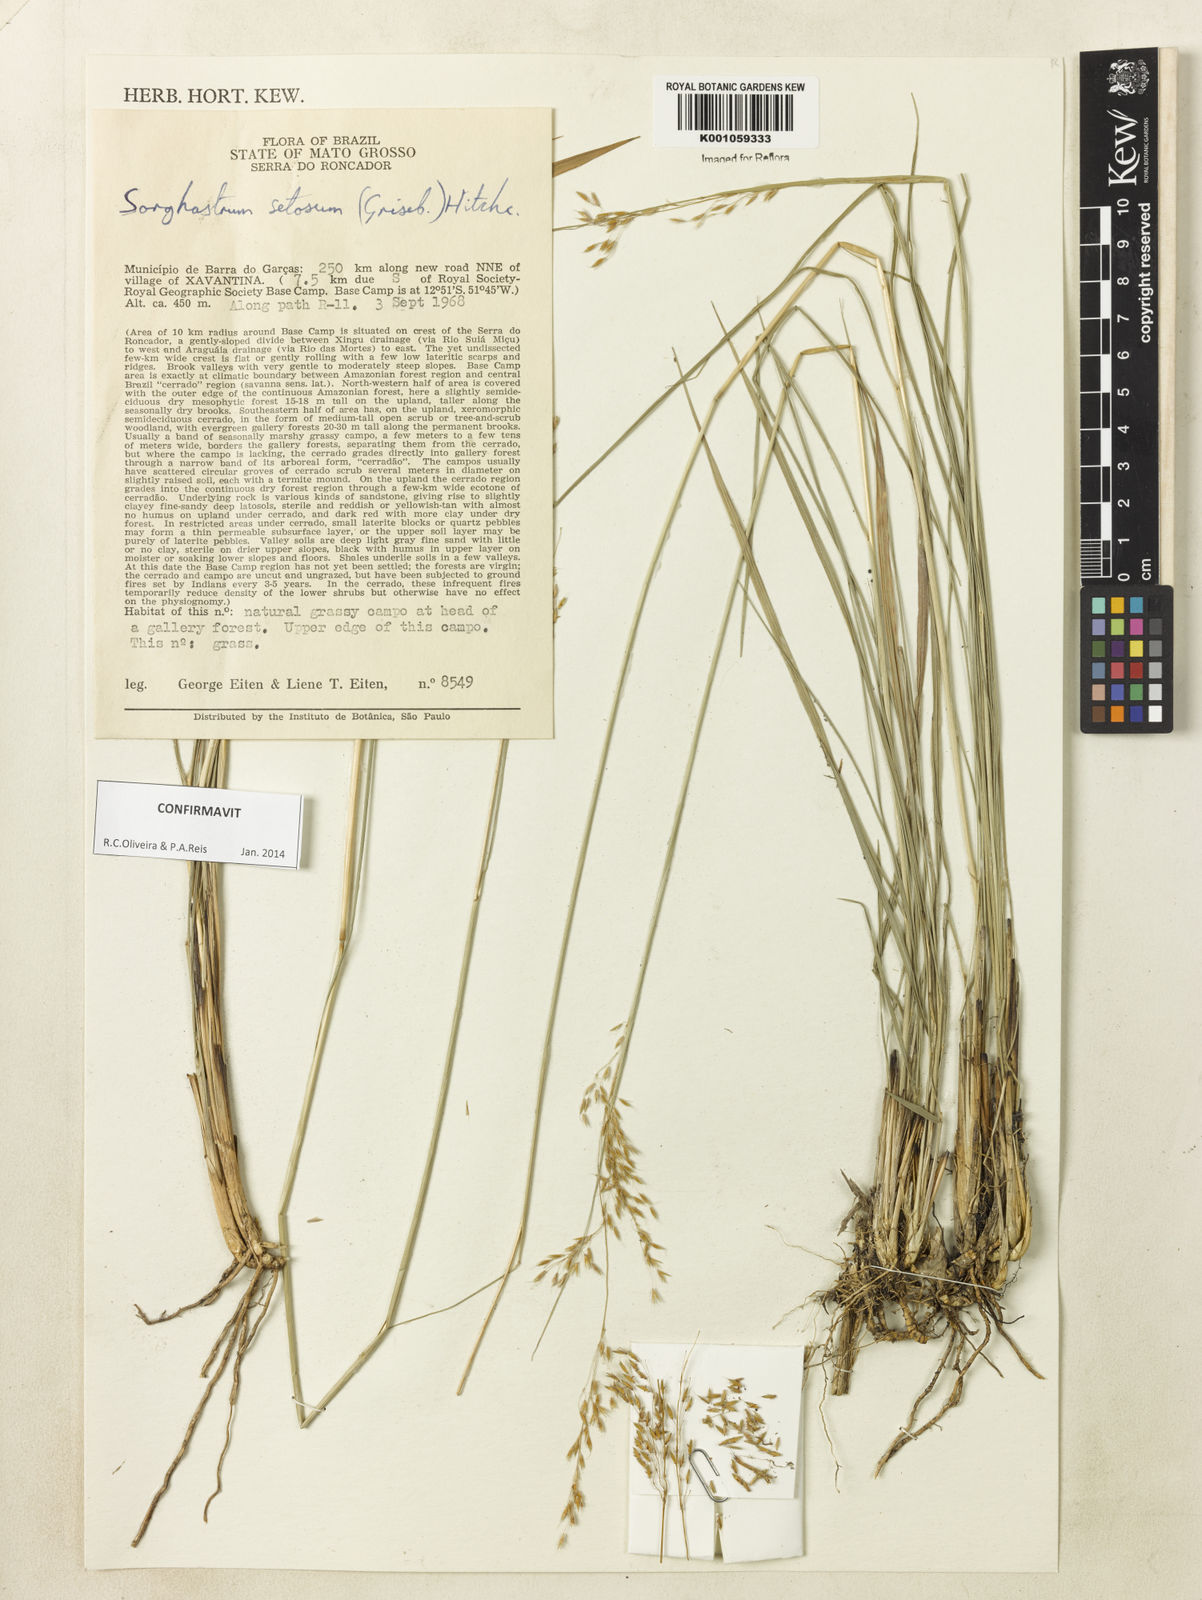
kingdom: Plantae
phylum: Tracheophyta
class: Liliopsida
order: Poales
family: Poaceae
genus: Sorghastrum
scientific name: Sorghastrum setosum
